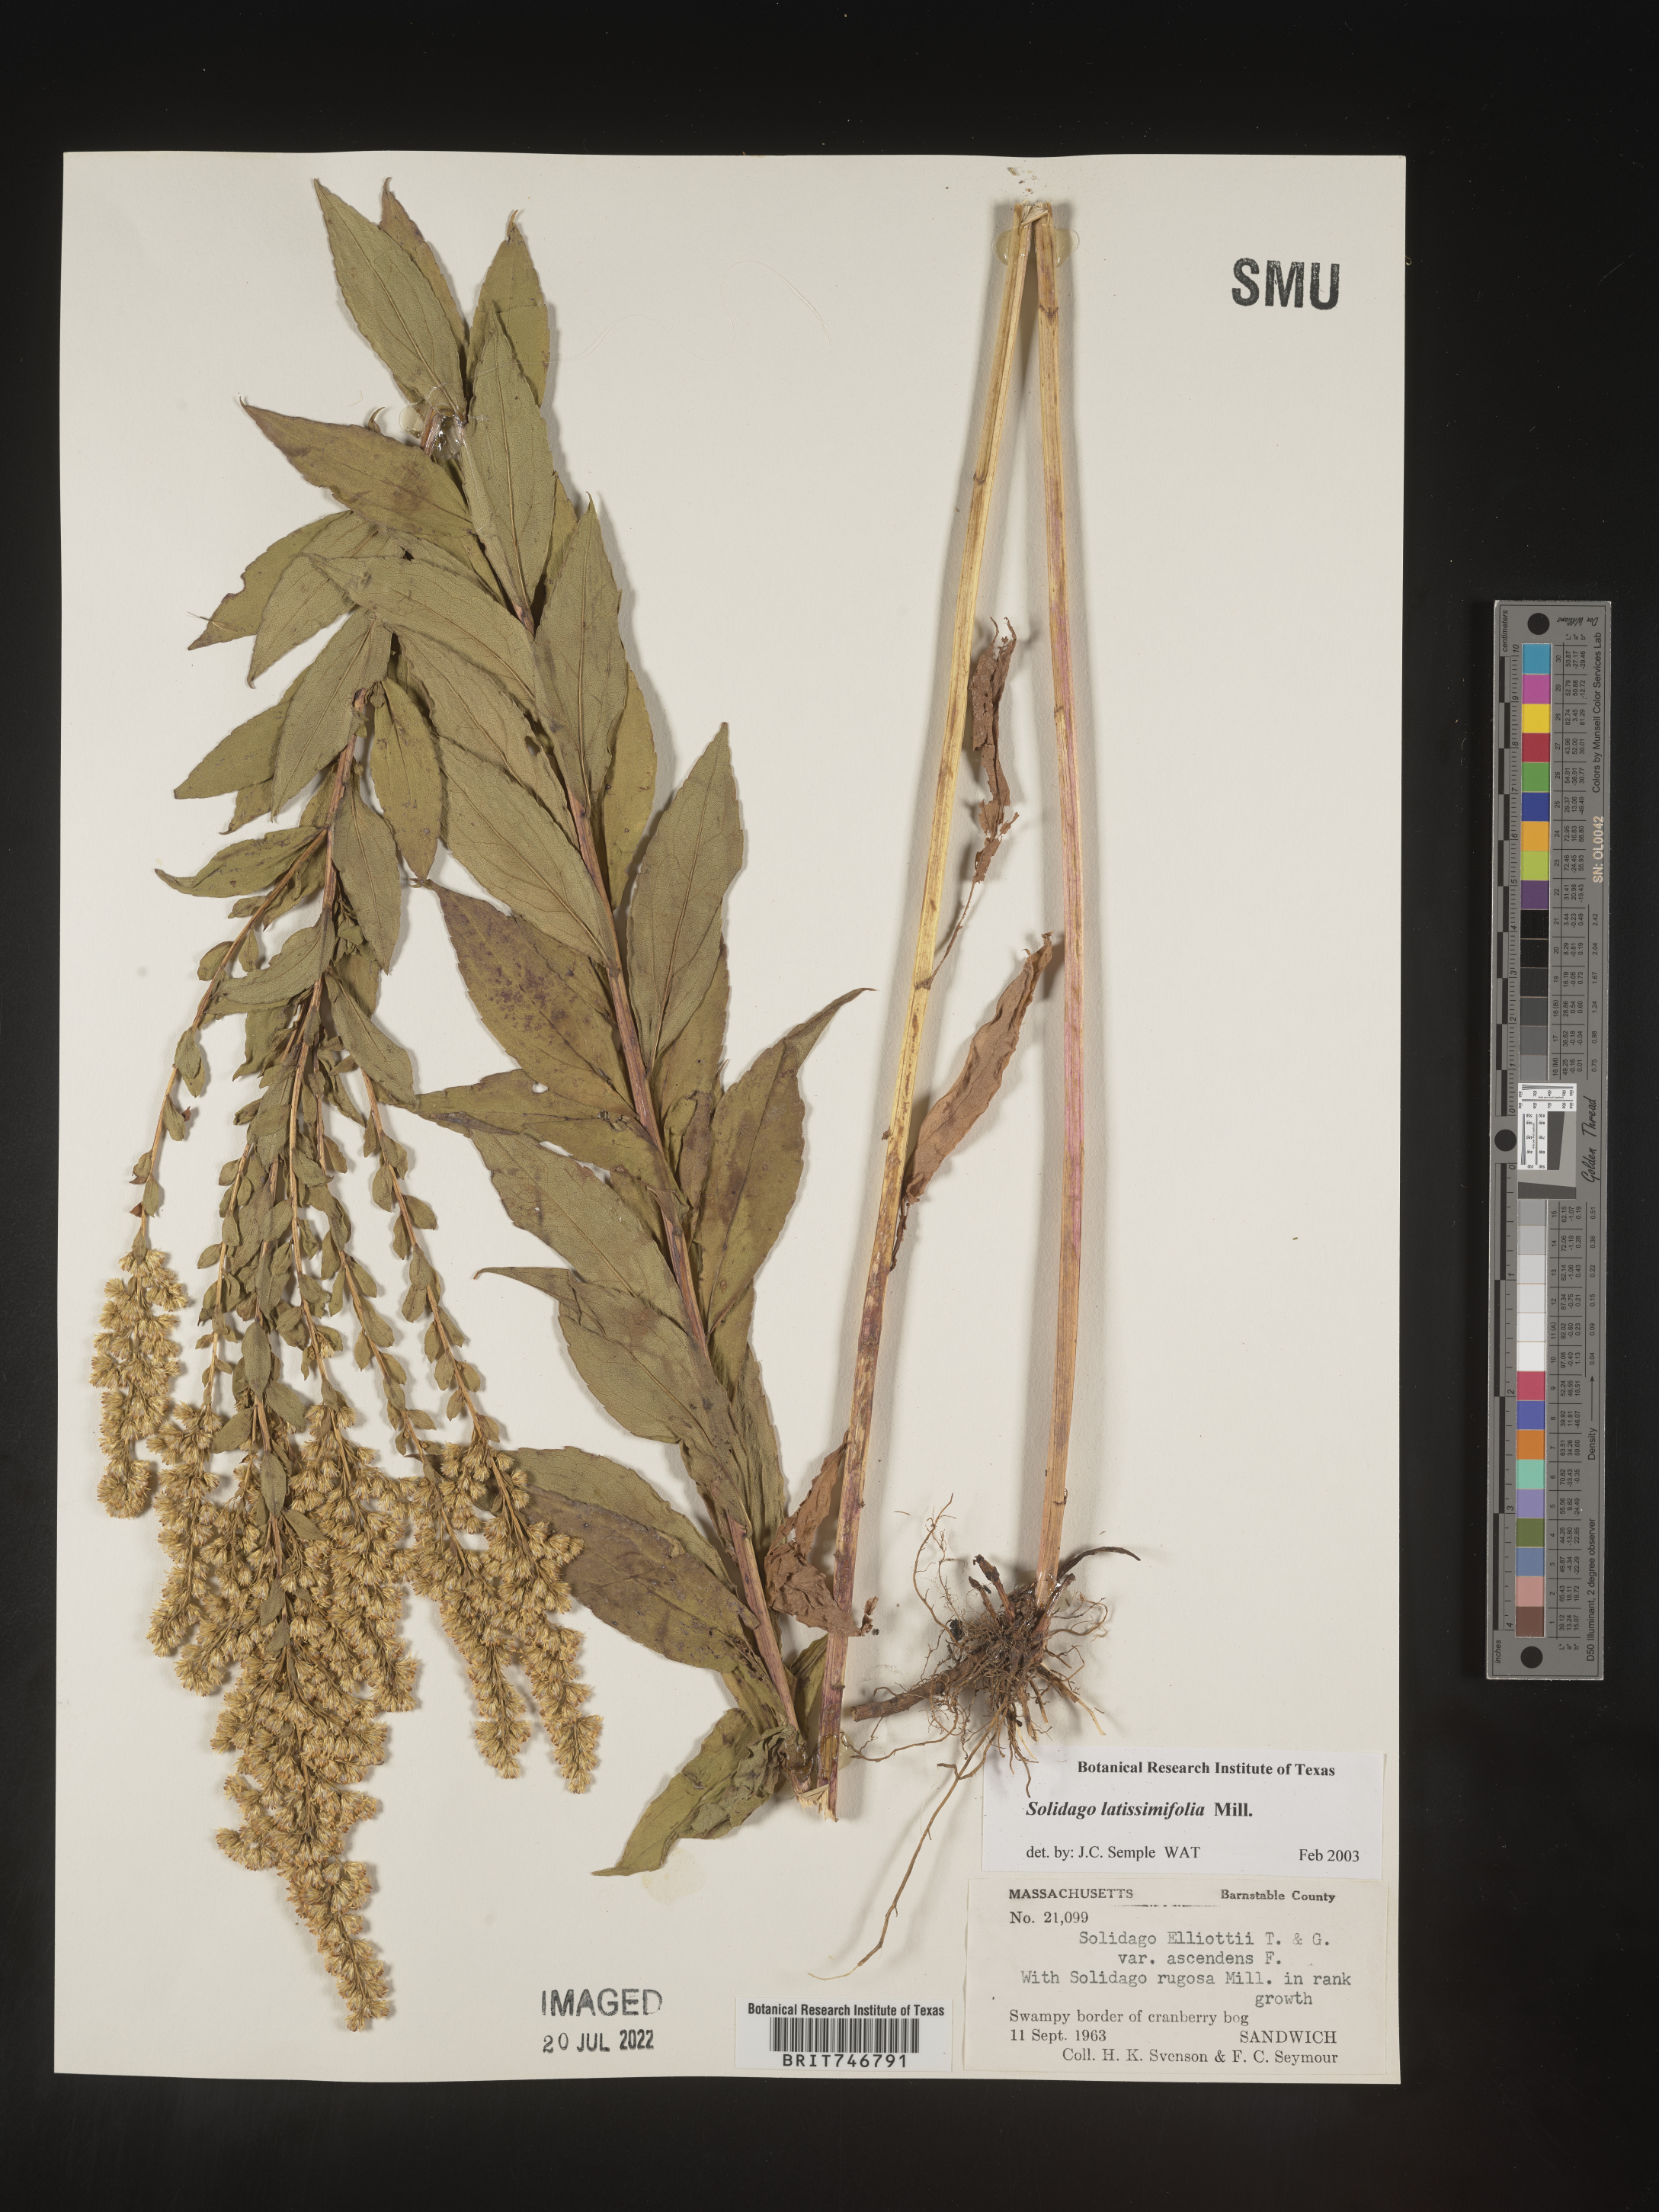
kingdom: Plantae
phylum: Tracheophyta
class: Magnoliopsida
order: Asterales
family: Asteraceae
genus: Solidago
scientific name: Solidago latissimifolia
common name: Elliott's goldenrod
